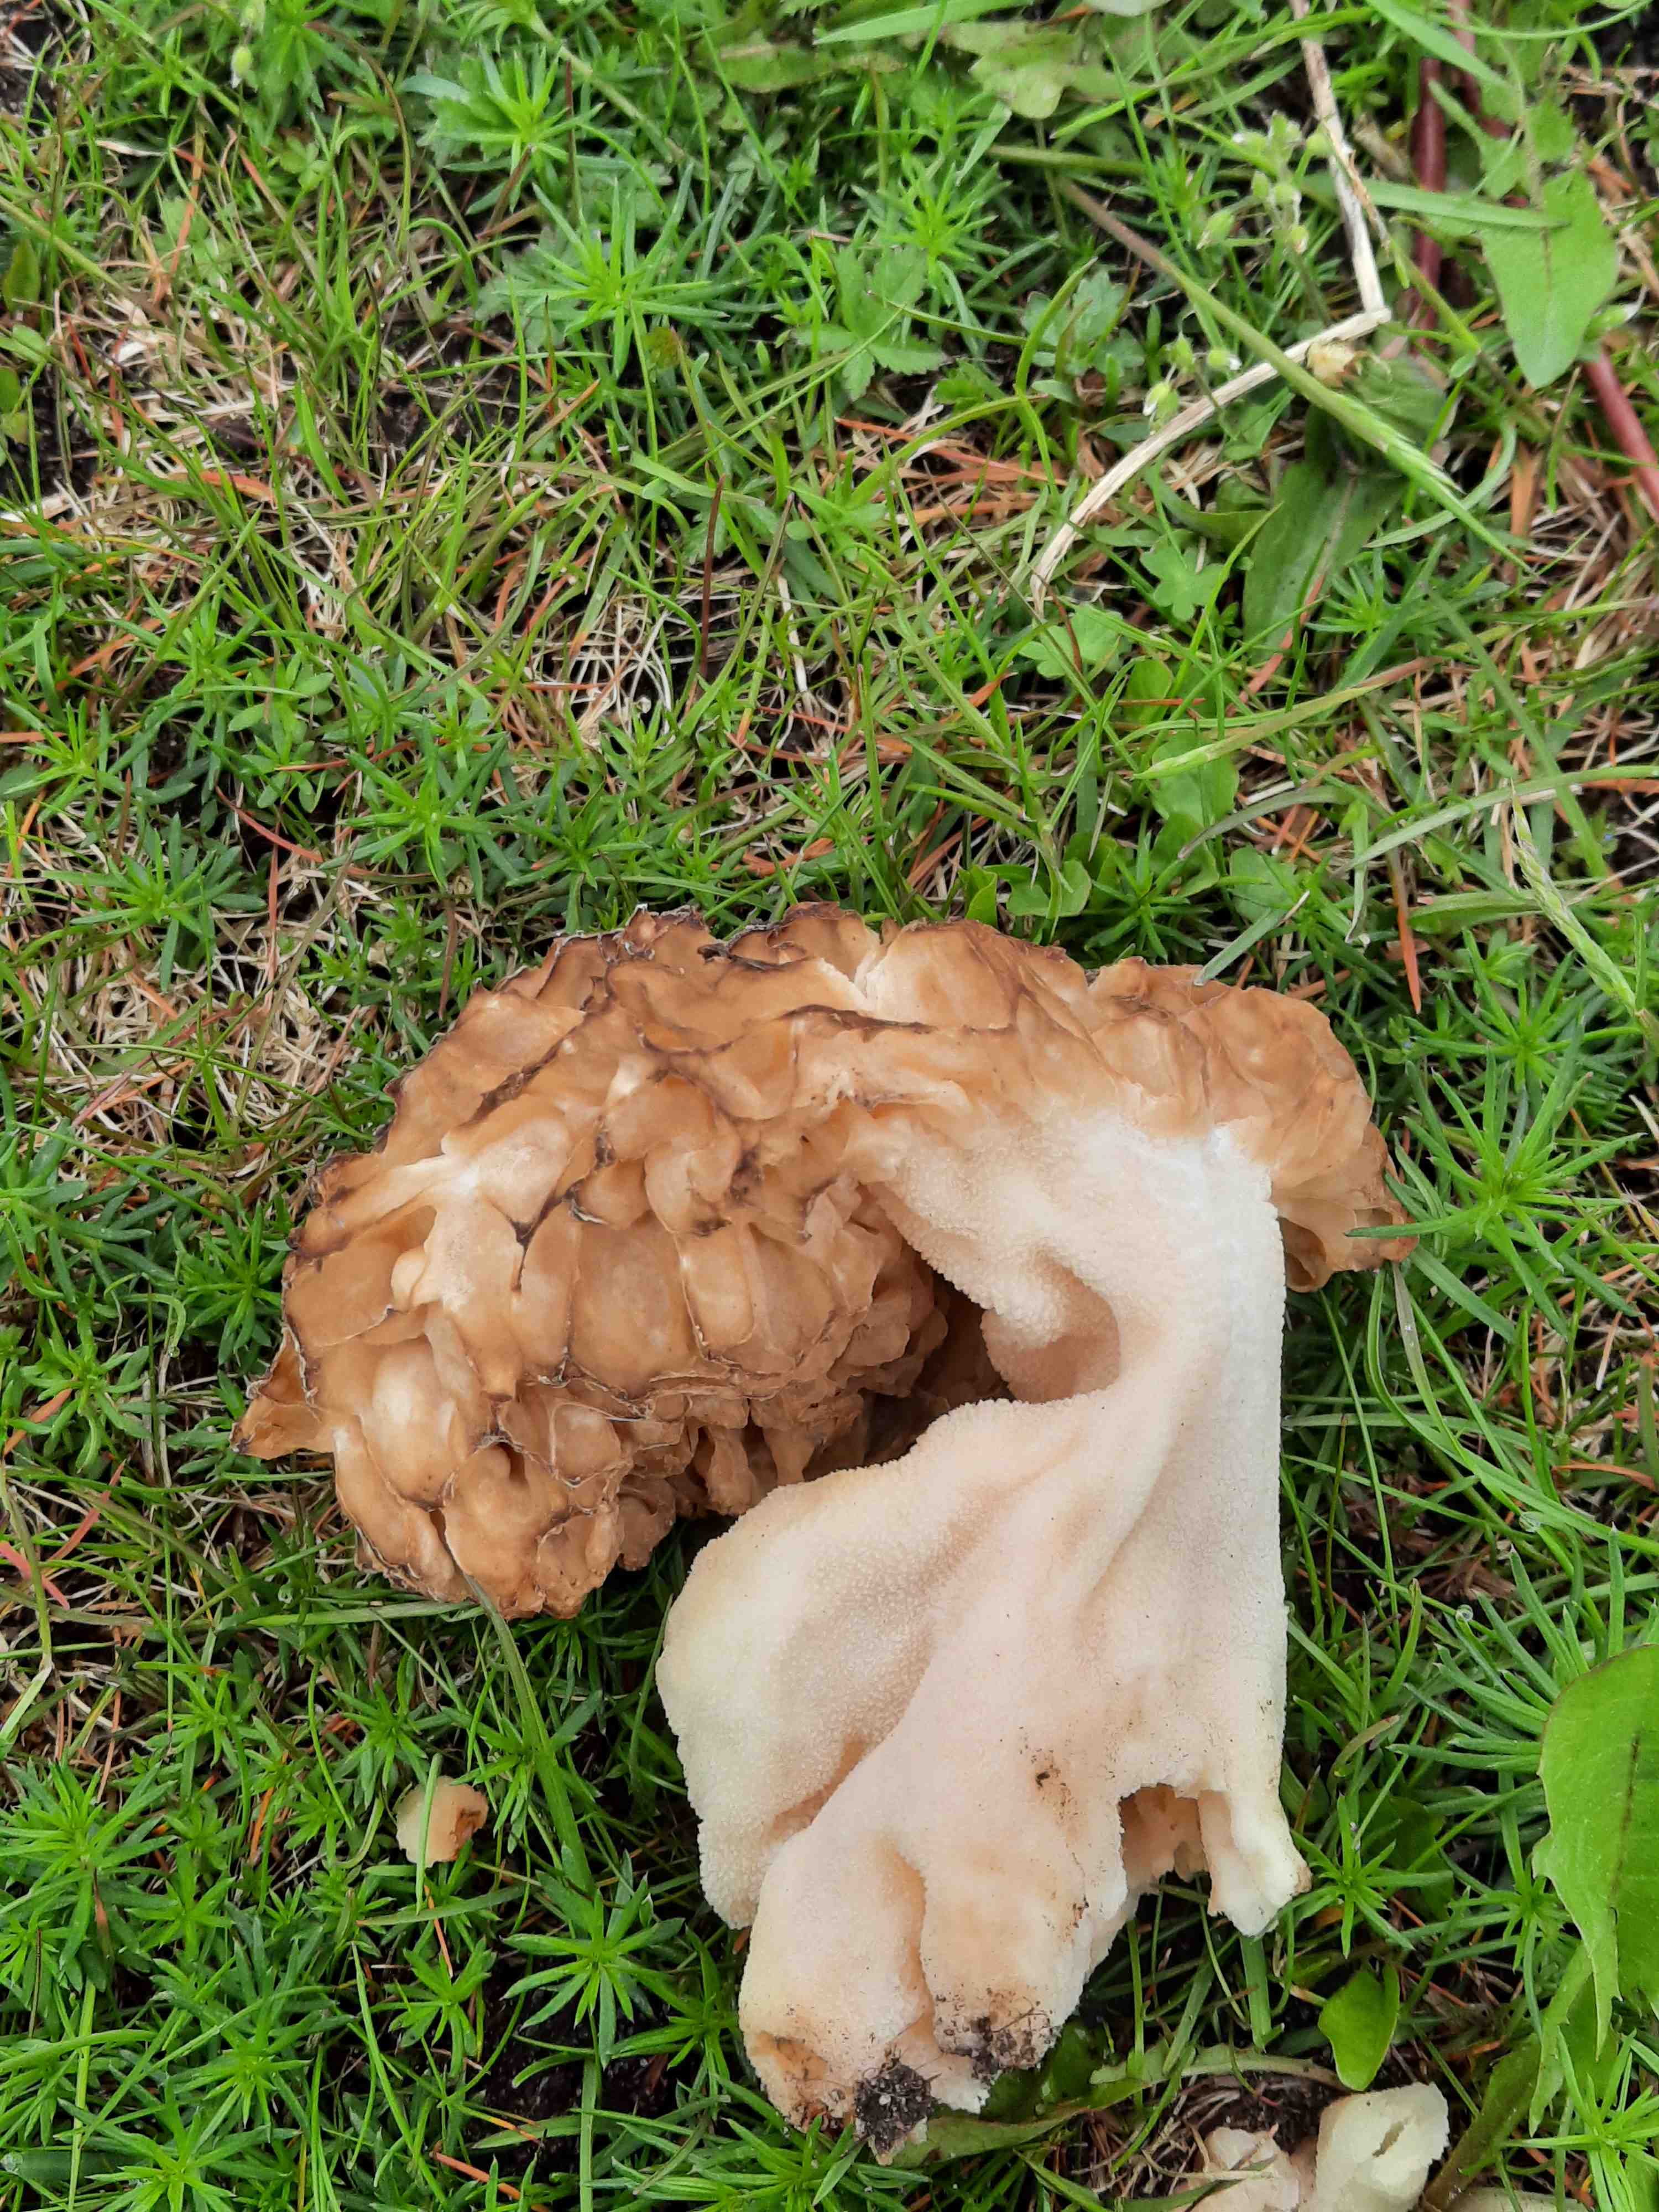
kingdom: Fungi
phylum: Ascomycota
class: Pezizomycetes
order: Pezizales
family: Morchellaceae
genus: Morchella
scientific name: Morchella esculenta
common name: spiselig morkel
